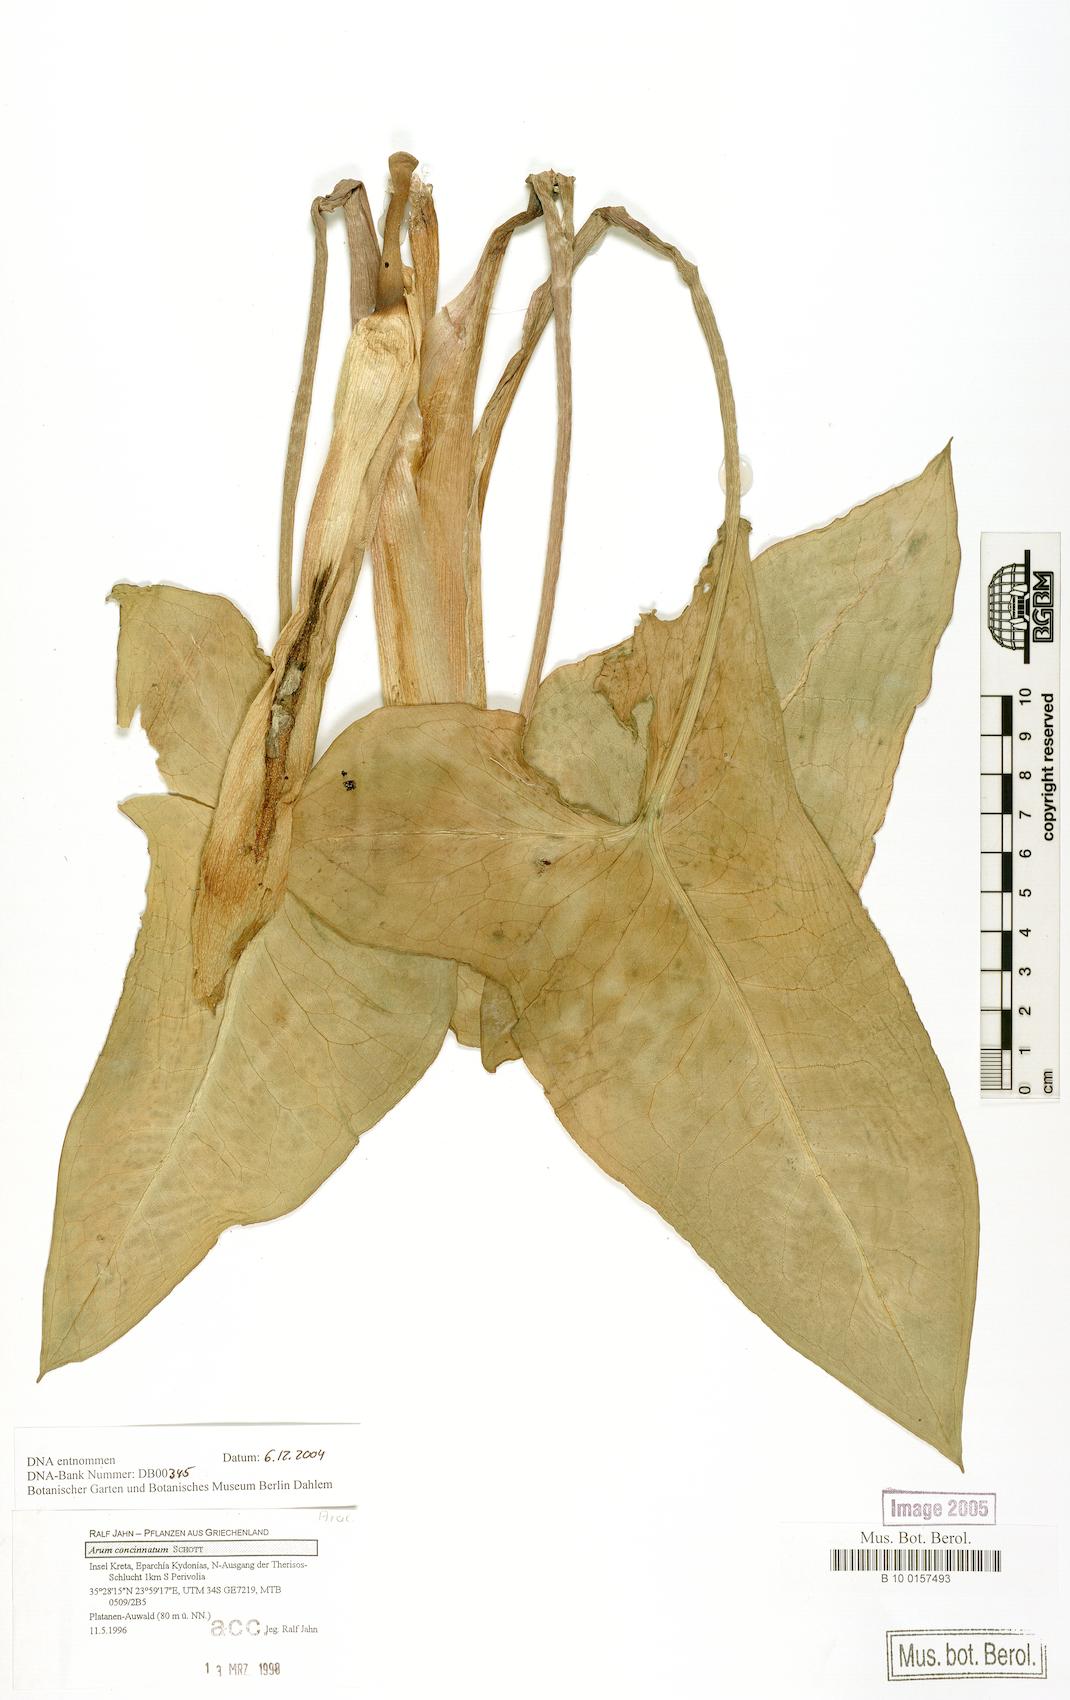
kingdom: Plantae
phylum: Tracheophyta
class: Liliopsida
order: Alismatales
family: Araceae
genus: Arum
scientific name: Arum concinnatum
